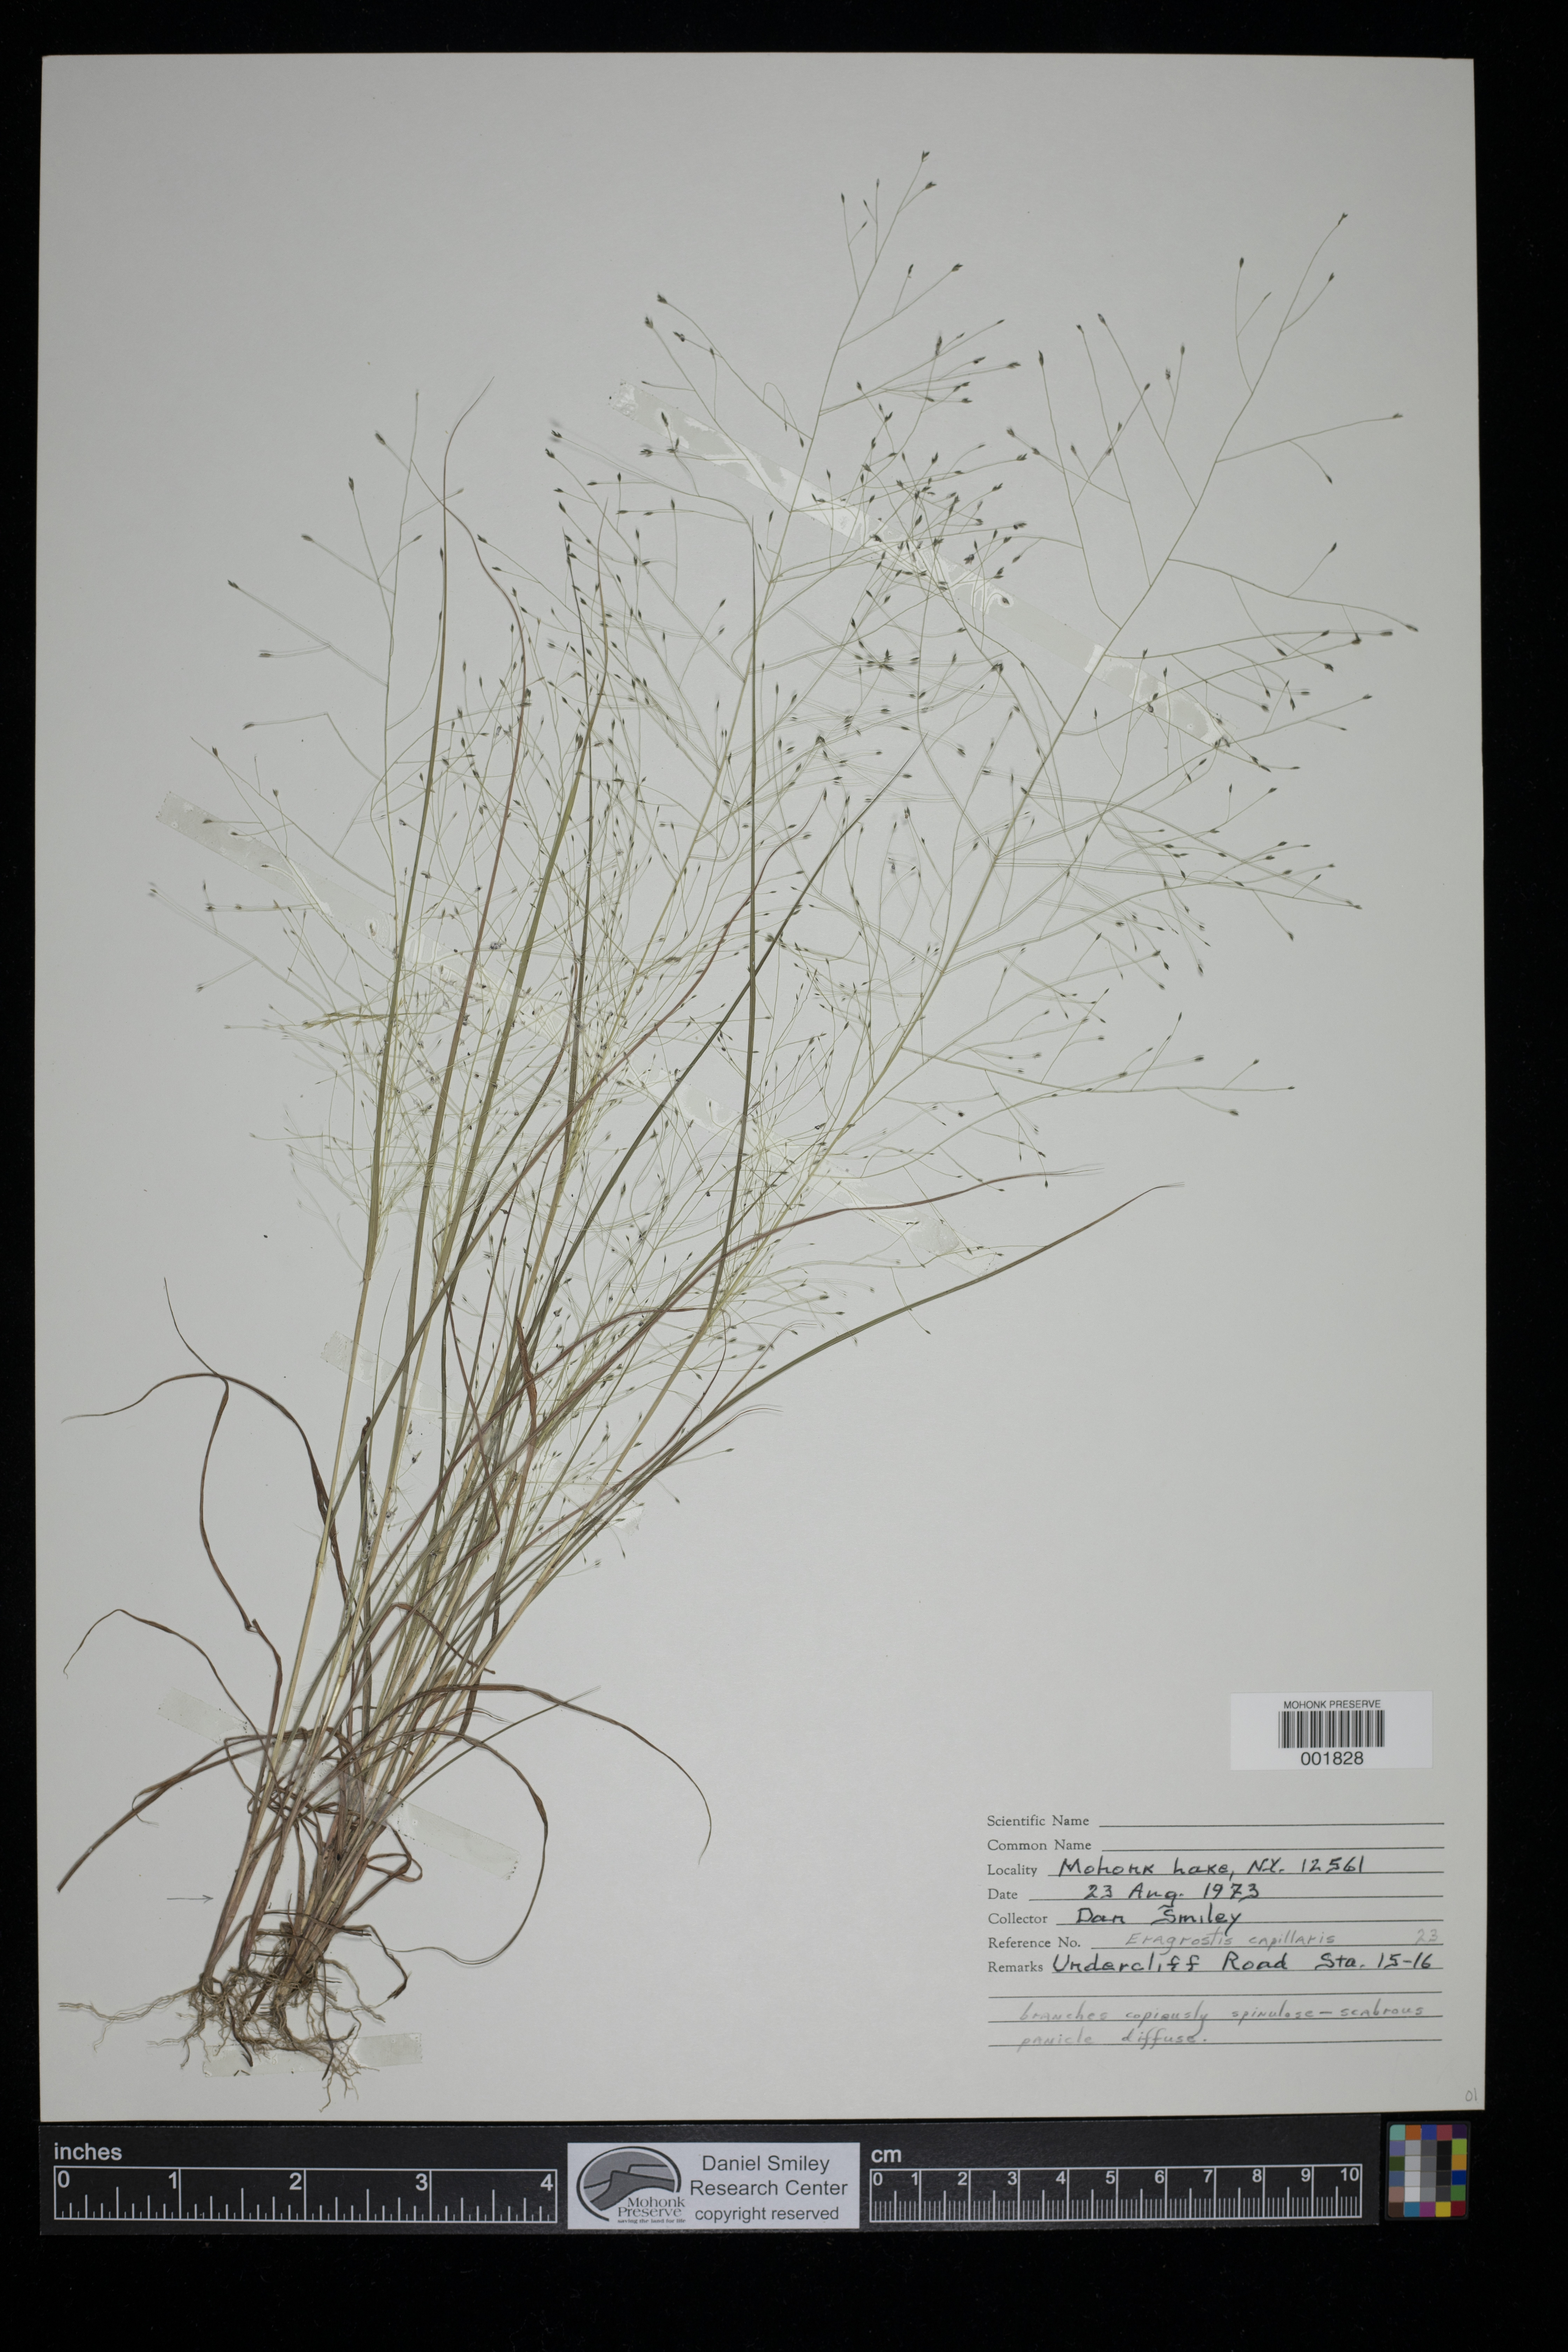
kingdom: Plantae
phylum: Tracheophyta
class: Liliopsida
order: Poales
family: Poaceae
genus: Eragrostis
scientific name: Eragrostis capillaris
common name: Hair-like lovegrass
